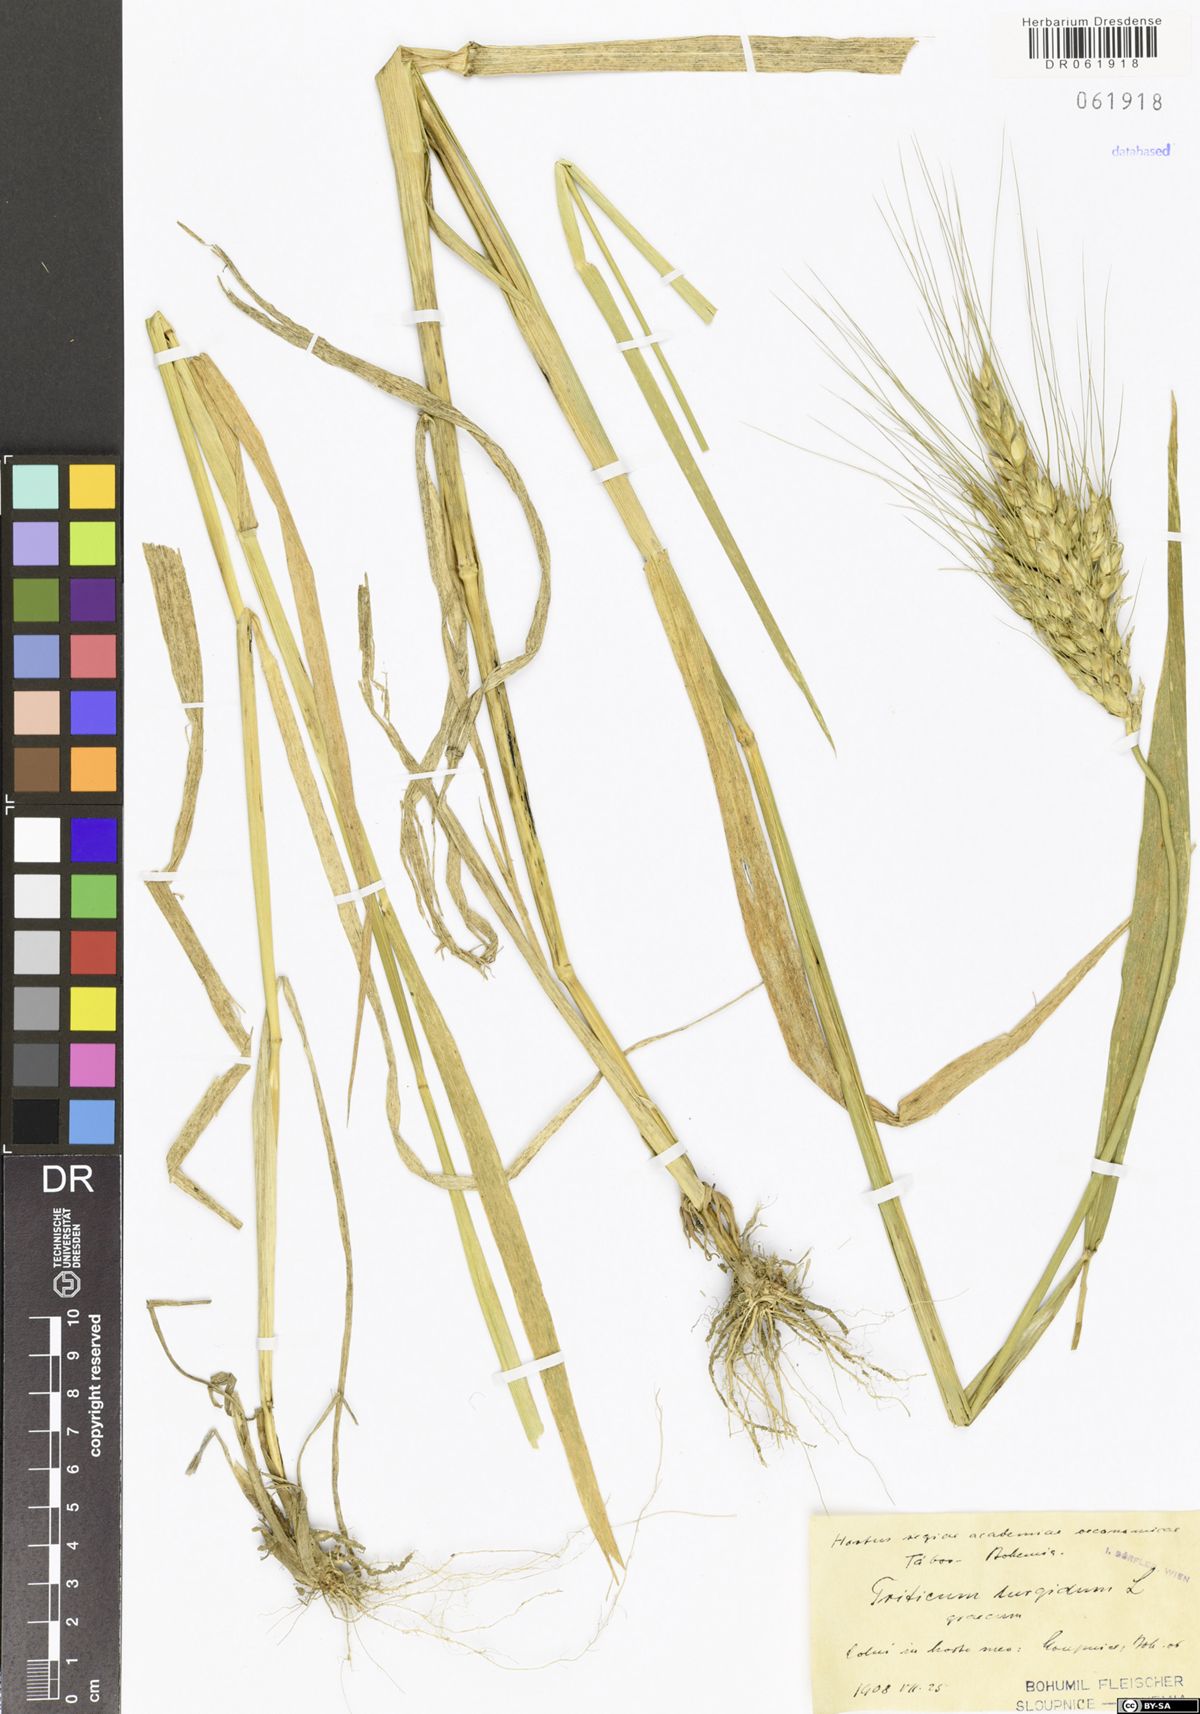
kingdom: Plantae
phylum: Tracheophyta
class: Liliopsida
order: Poales
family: Poaceae
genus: Triticum
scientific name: Triticum turgidum
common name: Rivet wheat
